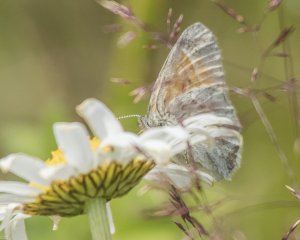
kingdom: Animalia
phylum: Arthropoda
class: Insecta
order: Lepidoptera
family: Nymphalidae
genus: Coenonympha
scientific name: Coenonympha tullia
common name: Large Heath
